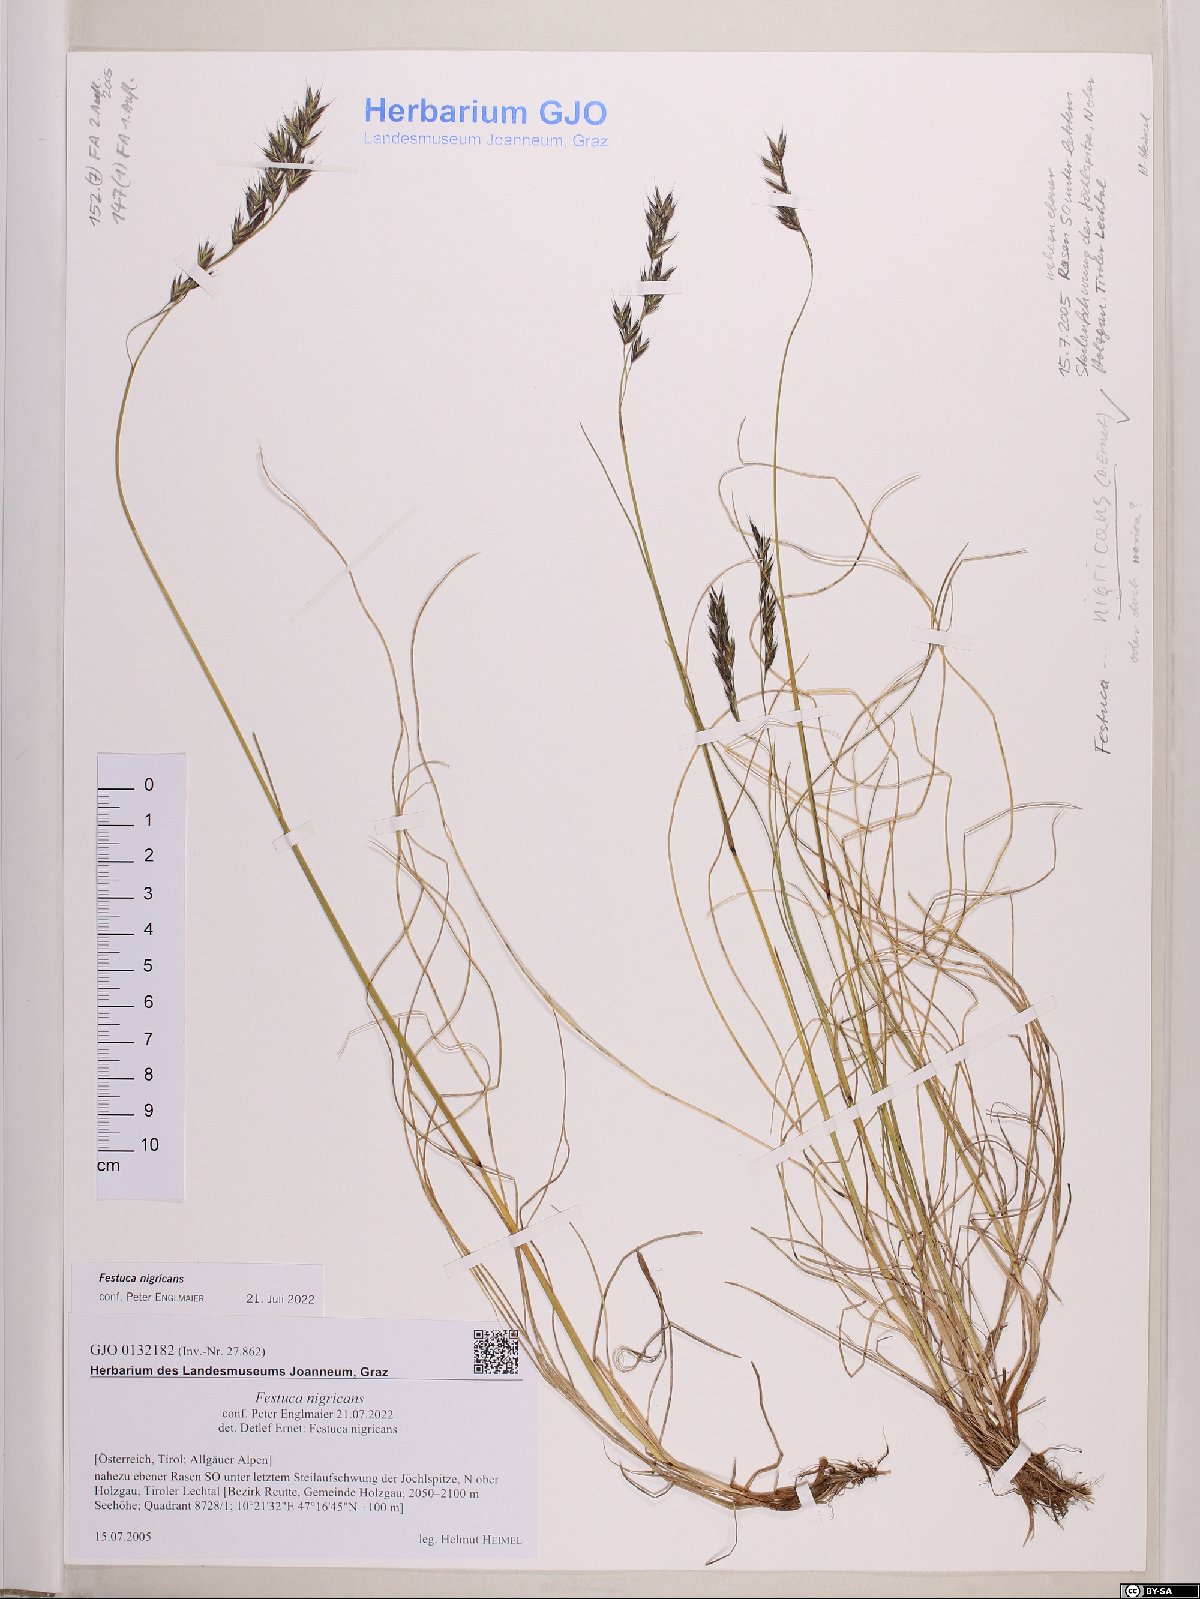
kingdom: Plantae
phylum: Tracheophyta
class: Liliopsida
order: Poales
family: Poaceae
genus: Festuca
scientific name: Festuca violacea
